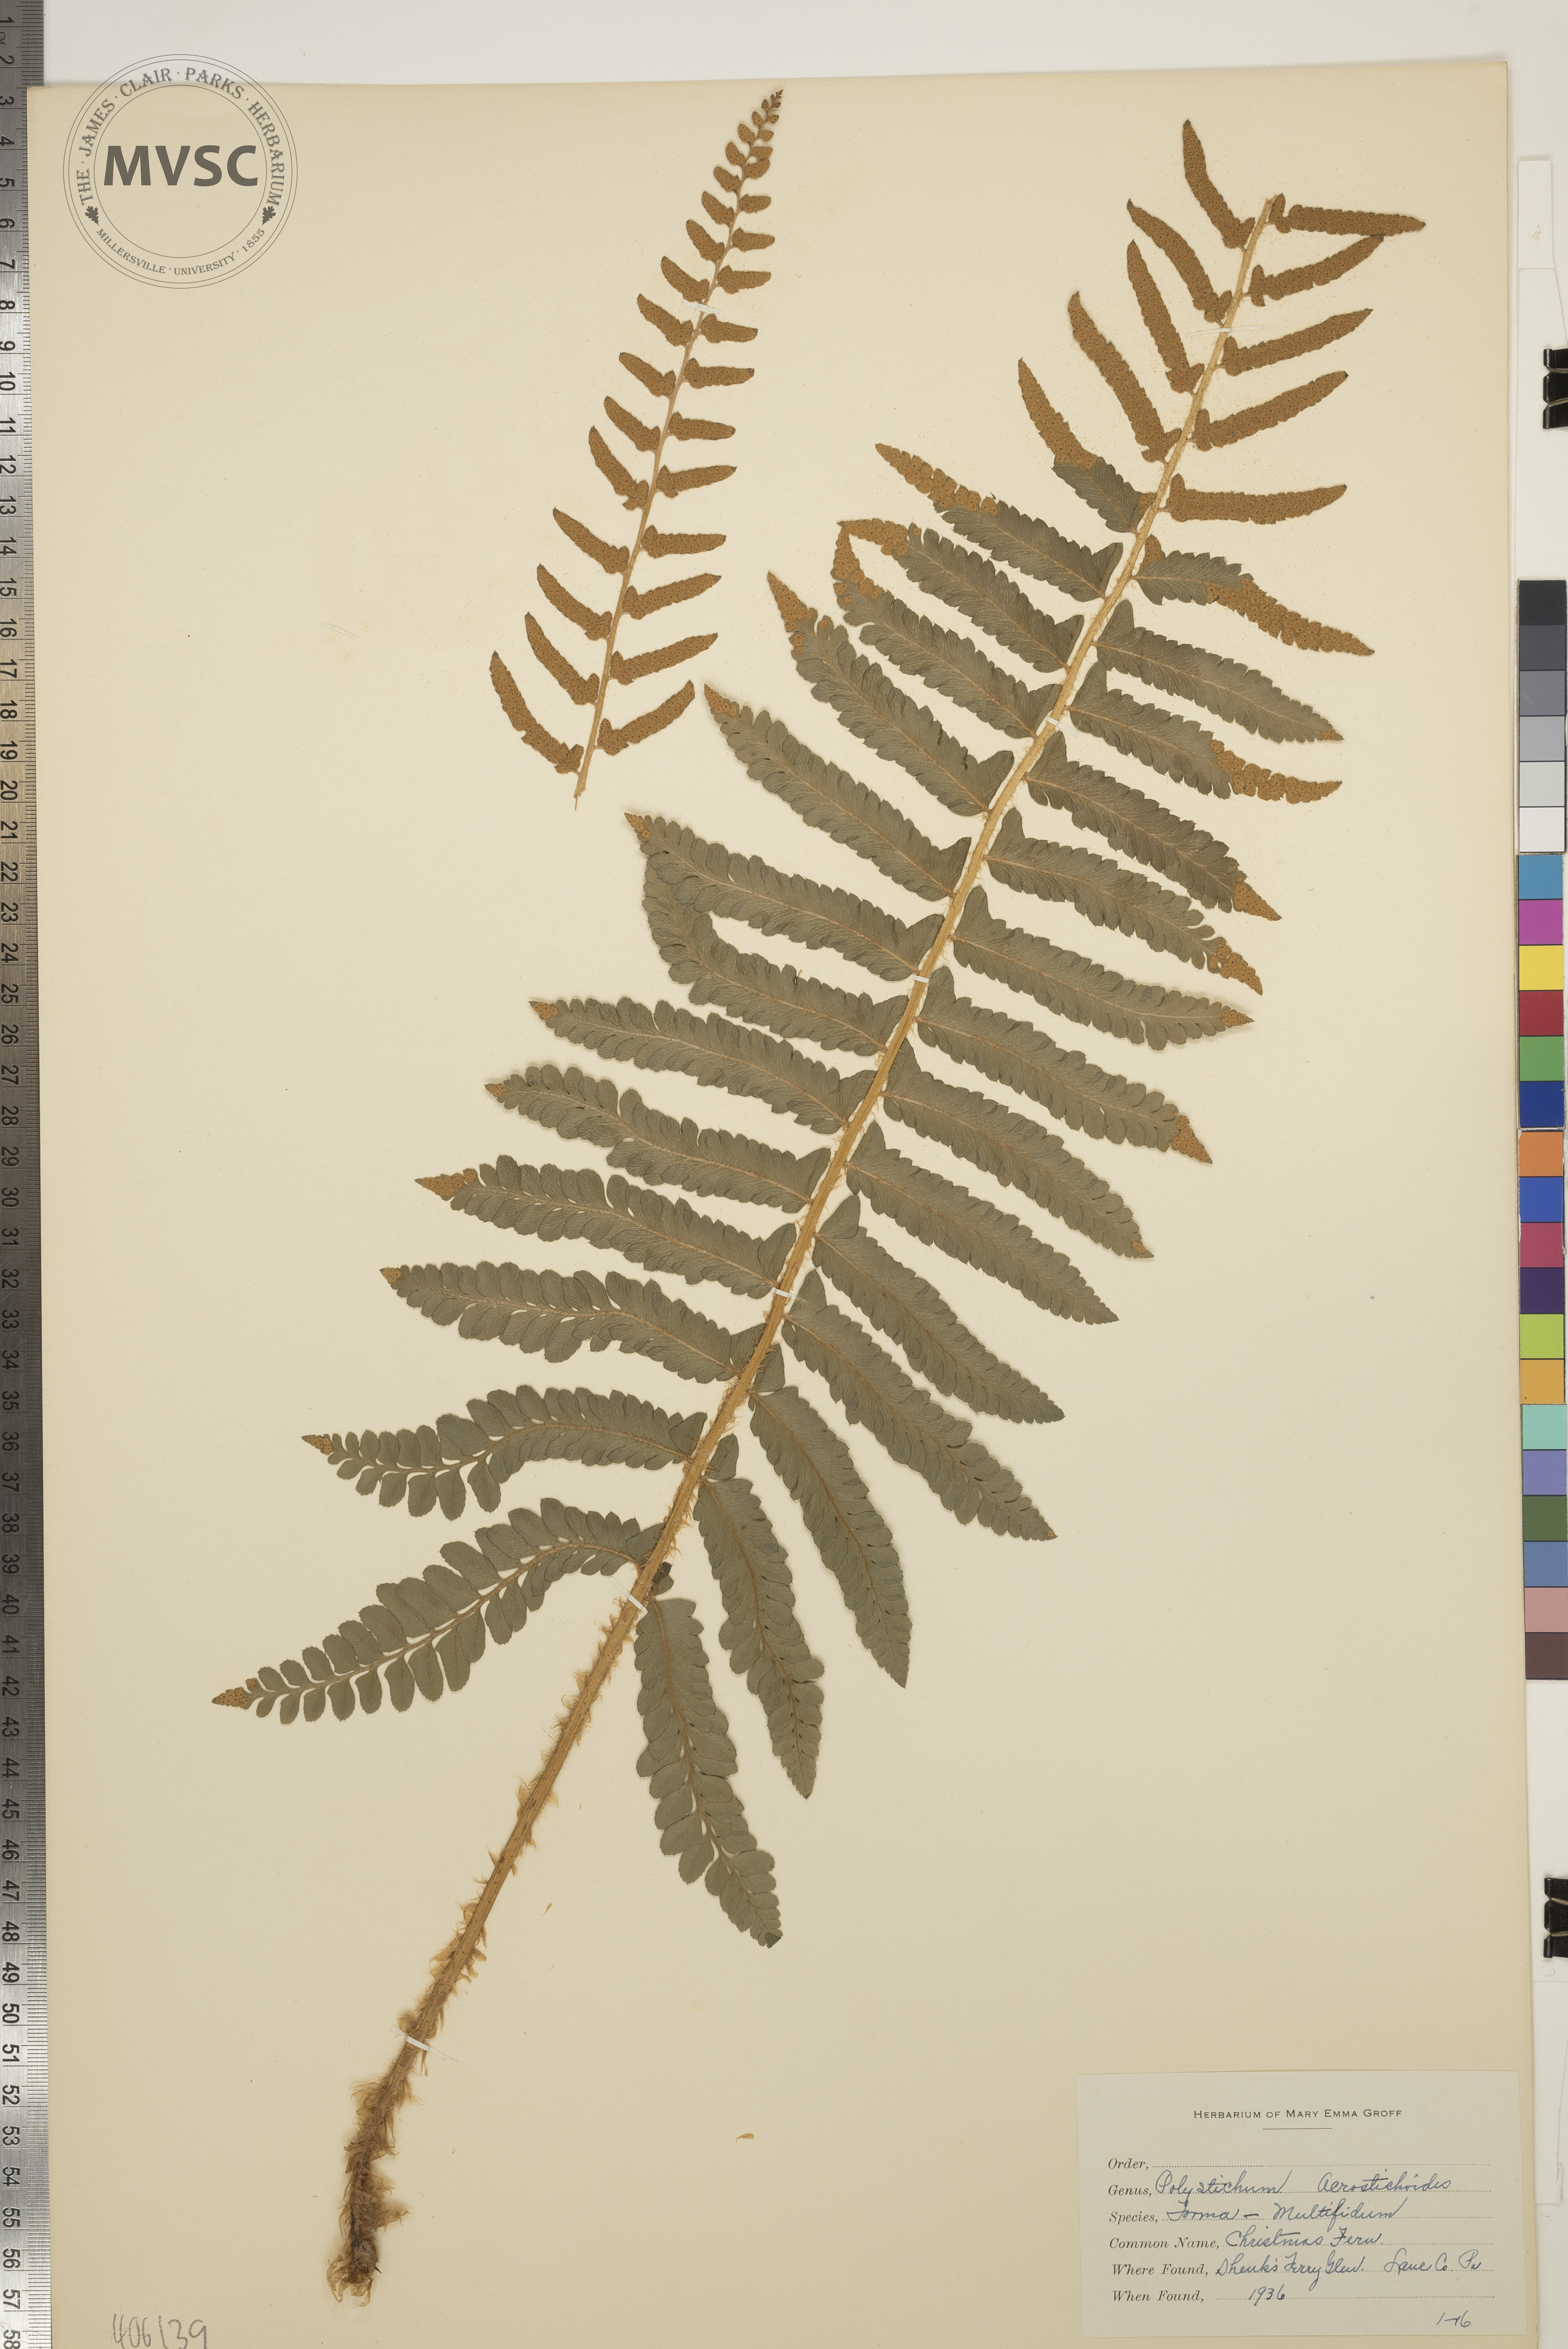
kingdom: Plantae
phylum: Tracheophyta
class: Polypodiopsida
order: Polypodiales
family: Dryopteridaceae
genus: Polystichum
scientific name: Polystichum acrostichoides
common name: Christmas Fern
